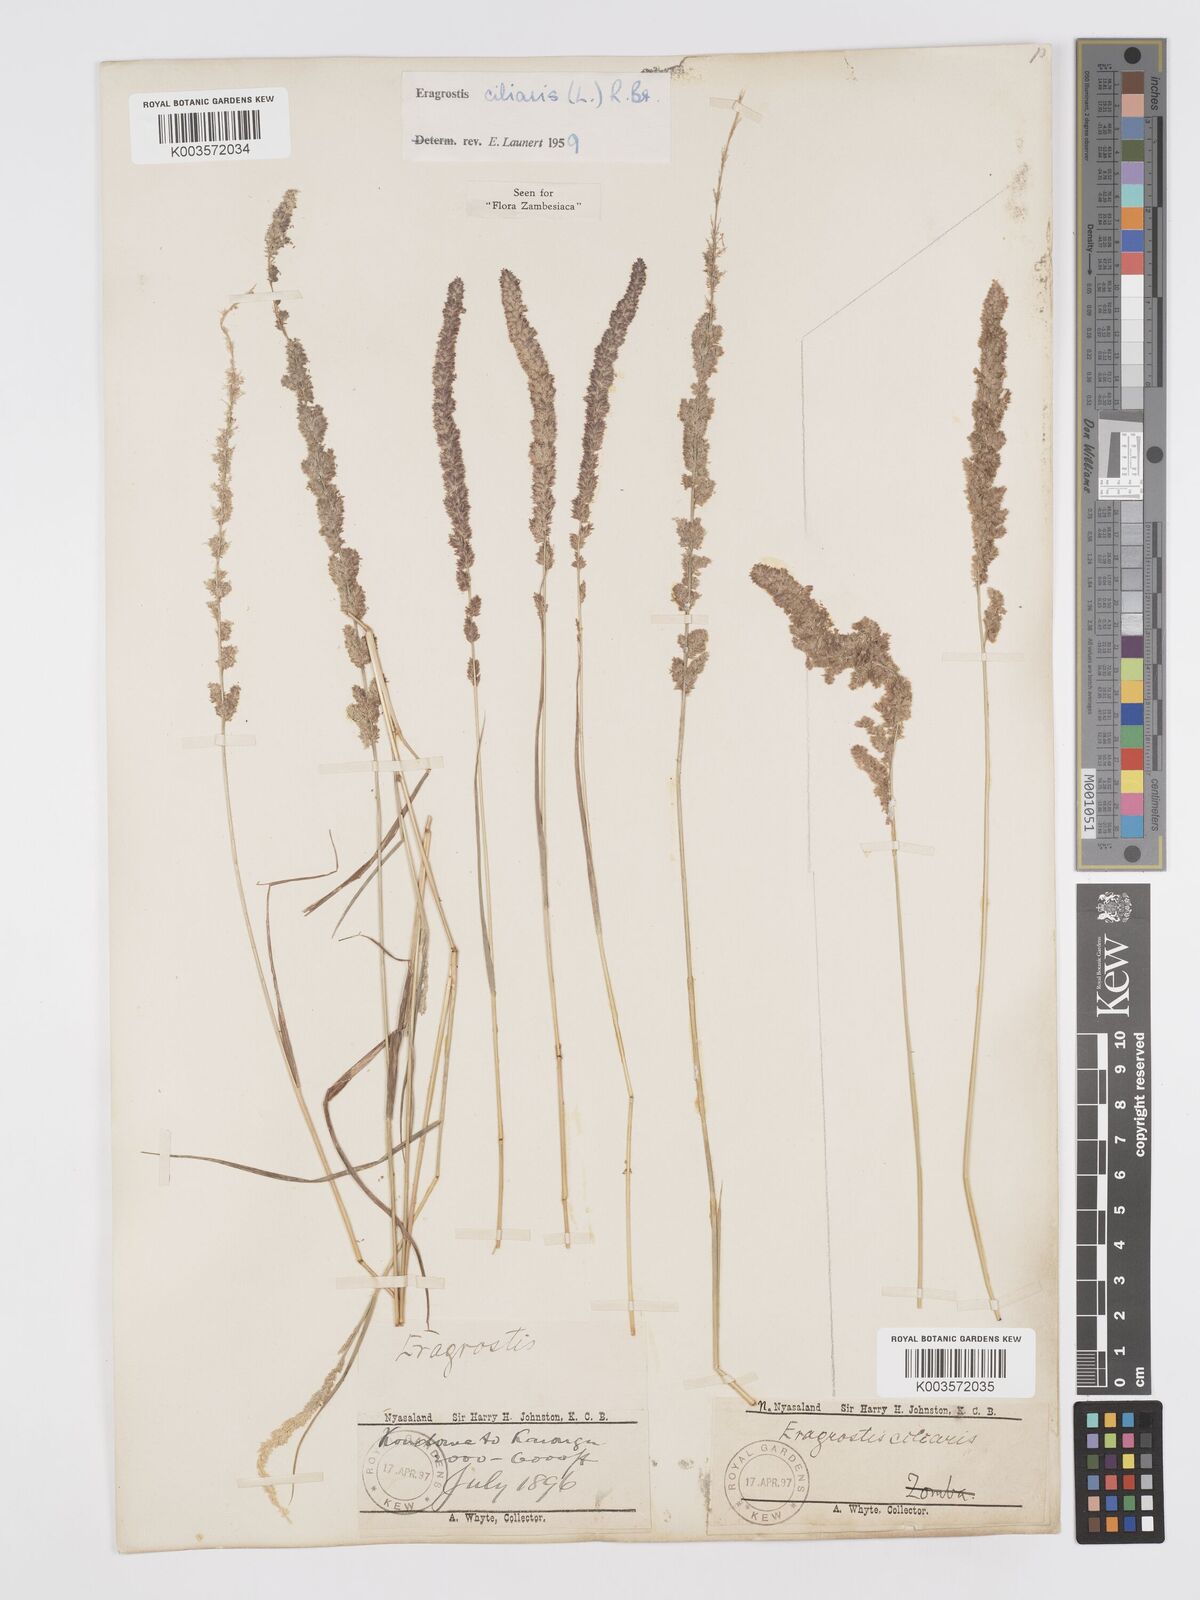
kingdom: Plantae
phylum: Tracheophyta
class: Liliopsida
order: Poales
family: Poaceae
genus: Eragrostis
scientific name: Eragrostis ciliaris
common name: Gophertail lovegrass
